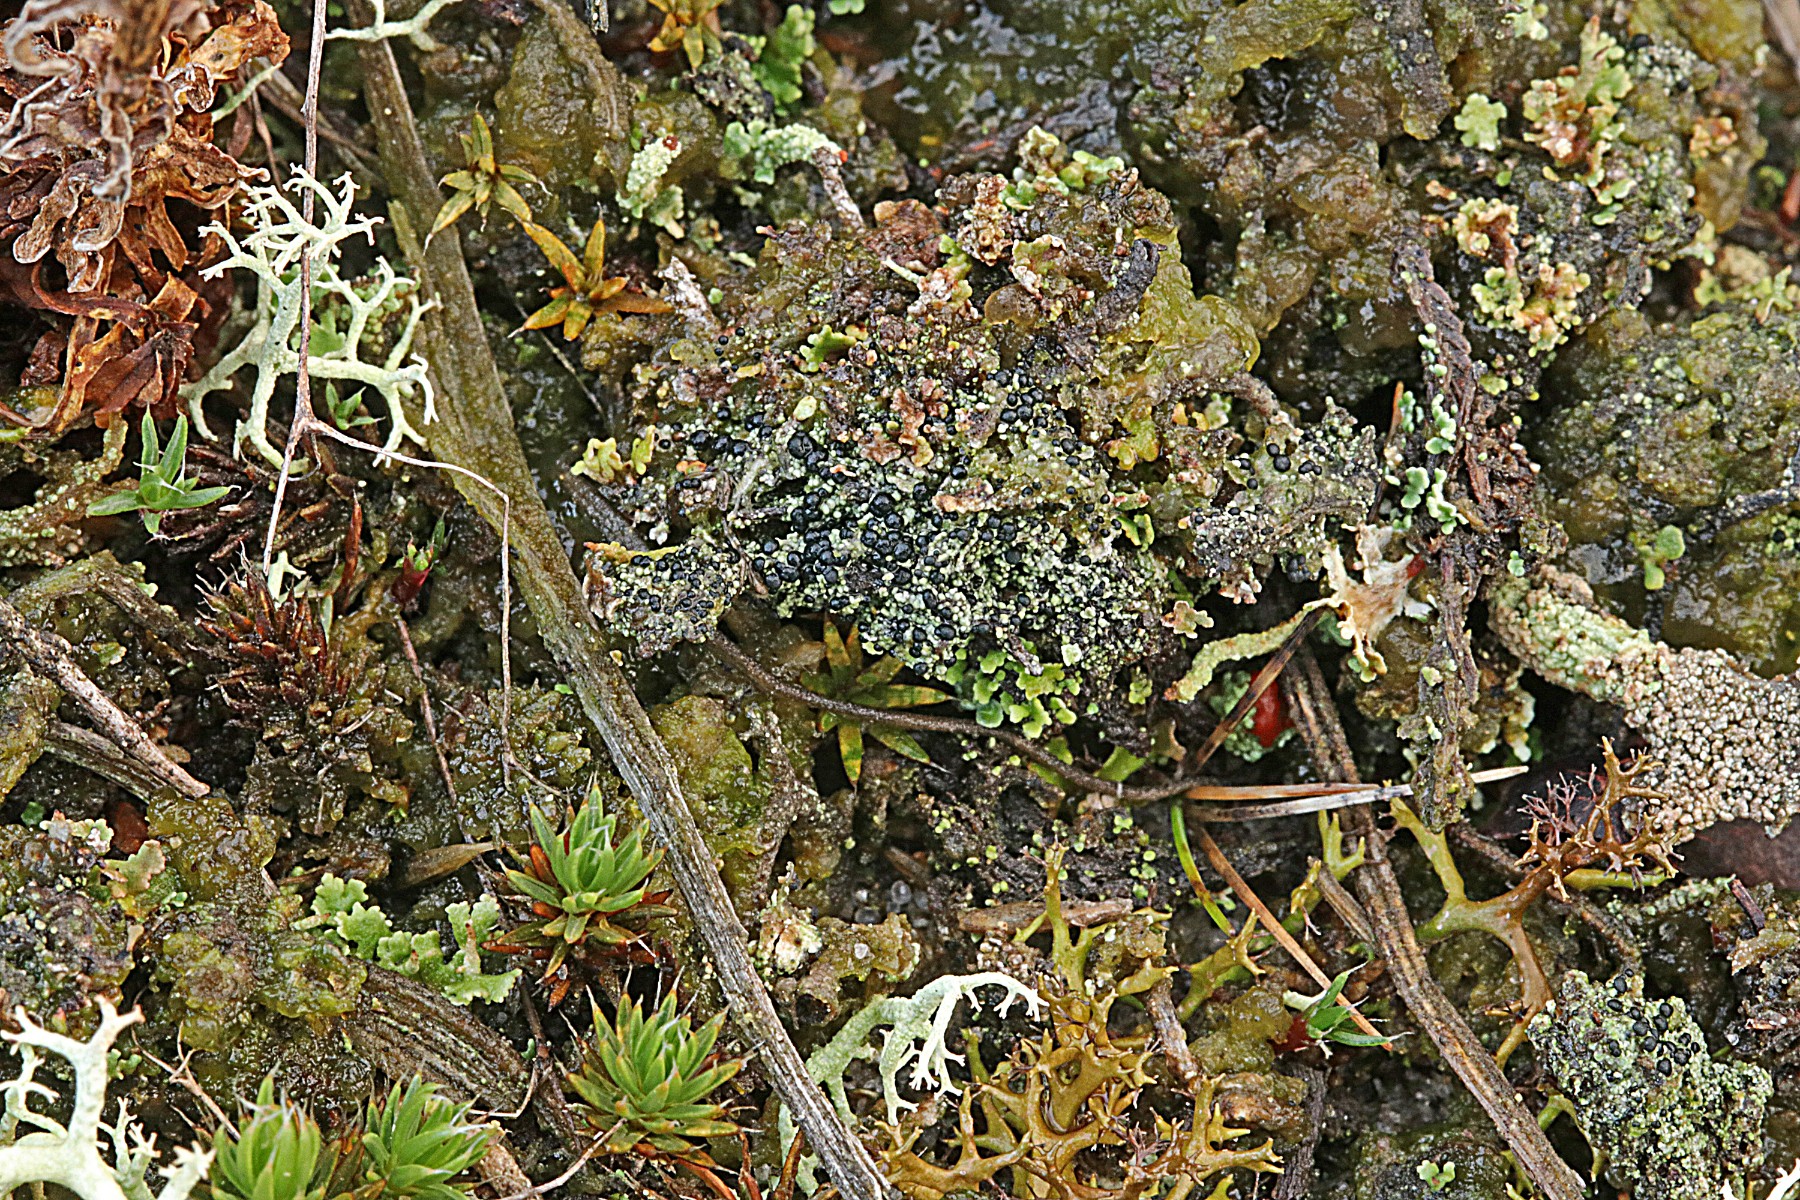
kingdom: Fungi
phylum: Ascomycota
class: Lecanoromycetes
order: Lecanorales
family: Byssolomataceae
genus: Micarea
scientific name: Micarea lignaria
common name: tørve-knaplav
